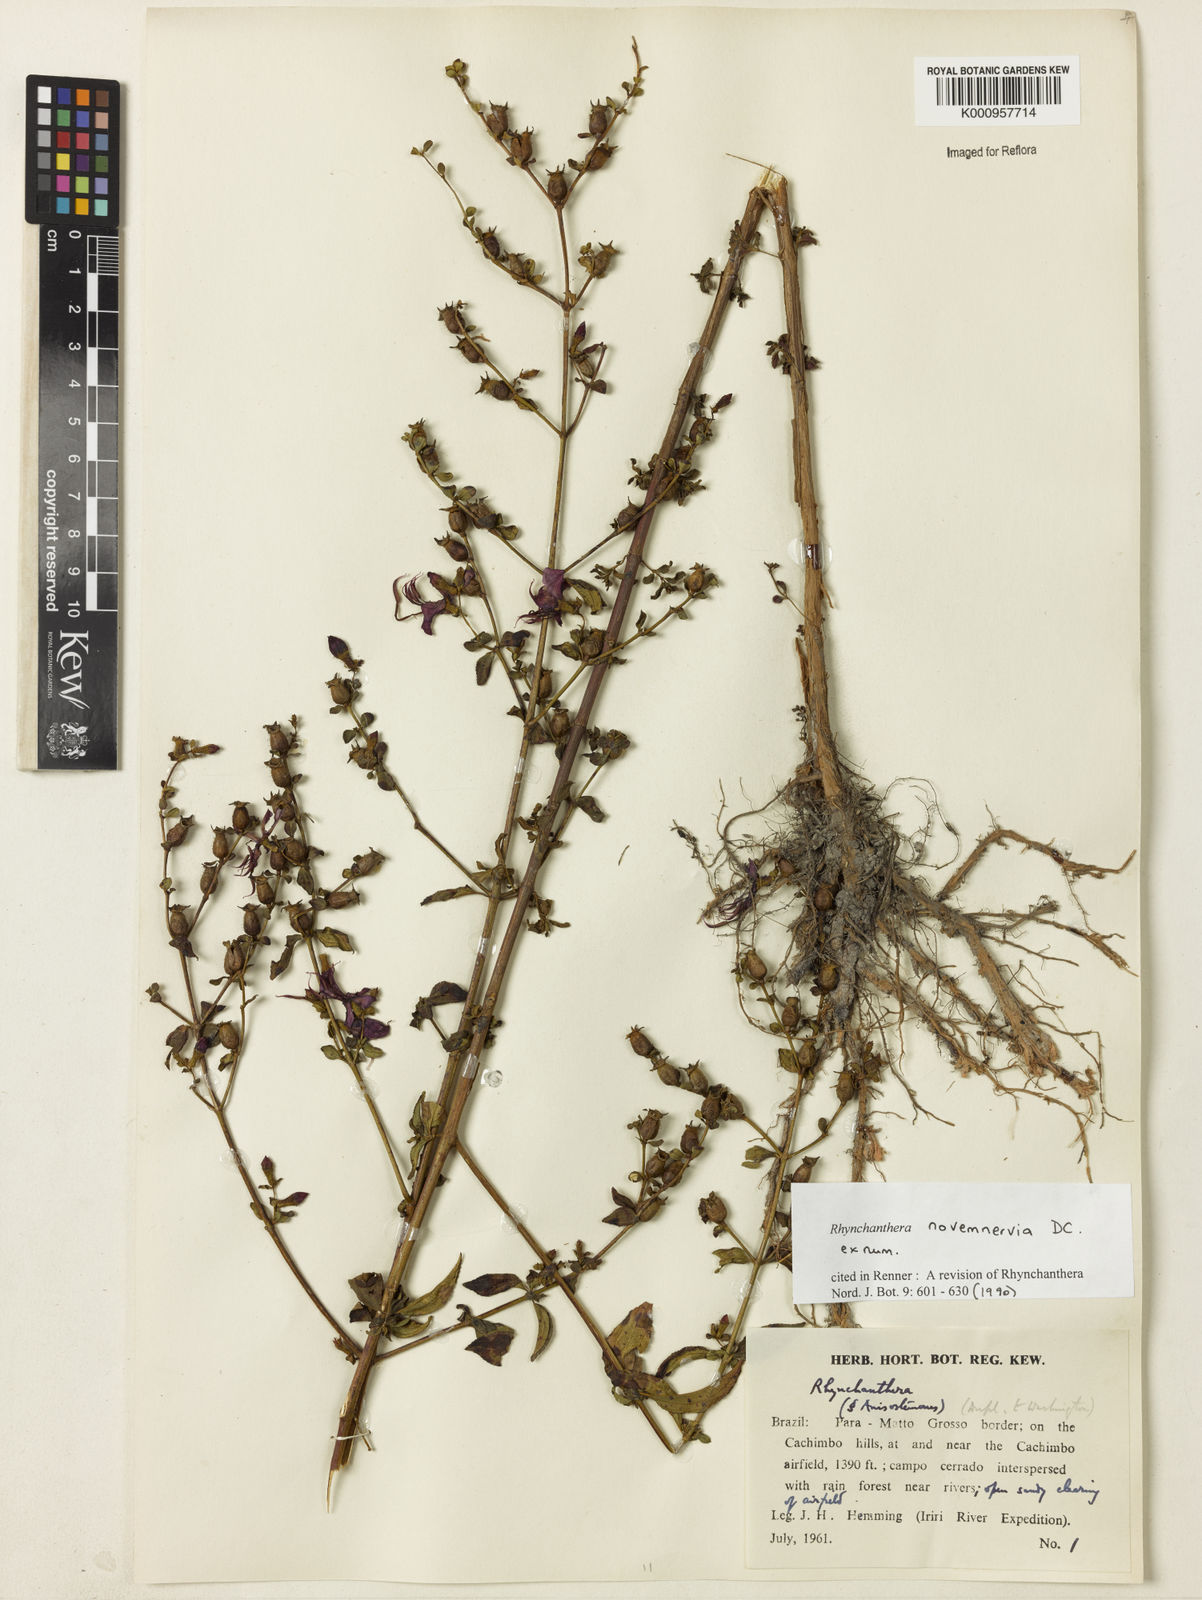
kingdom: Plantae
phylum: Tracheophyta
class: Magnoliopsida
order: Myrtales
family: Melastomataceae
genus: Rhynchanthera
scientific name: Rhynchanthera novemnervia
